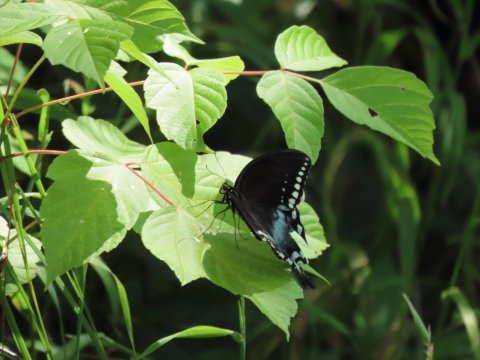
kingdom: Animalia
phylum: Arthropoda
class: Insecta
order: Lepidoptera
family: Papilionidae
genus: Pterourus
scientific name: Pterourus troilus
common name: Spicebush Swallowtail
